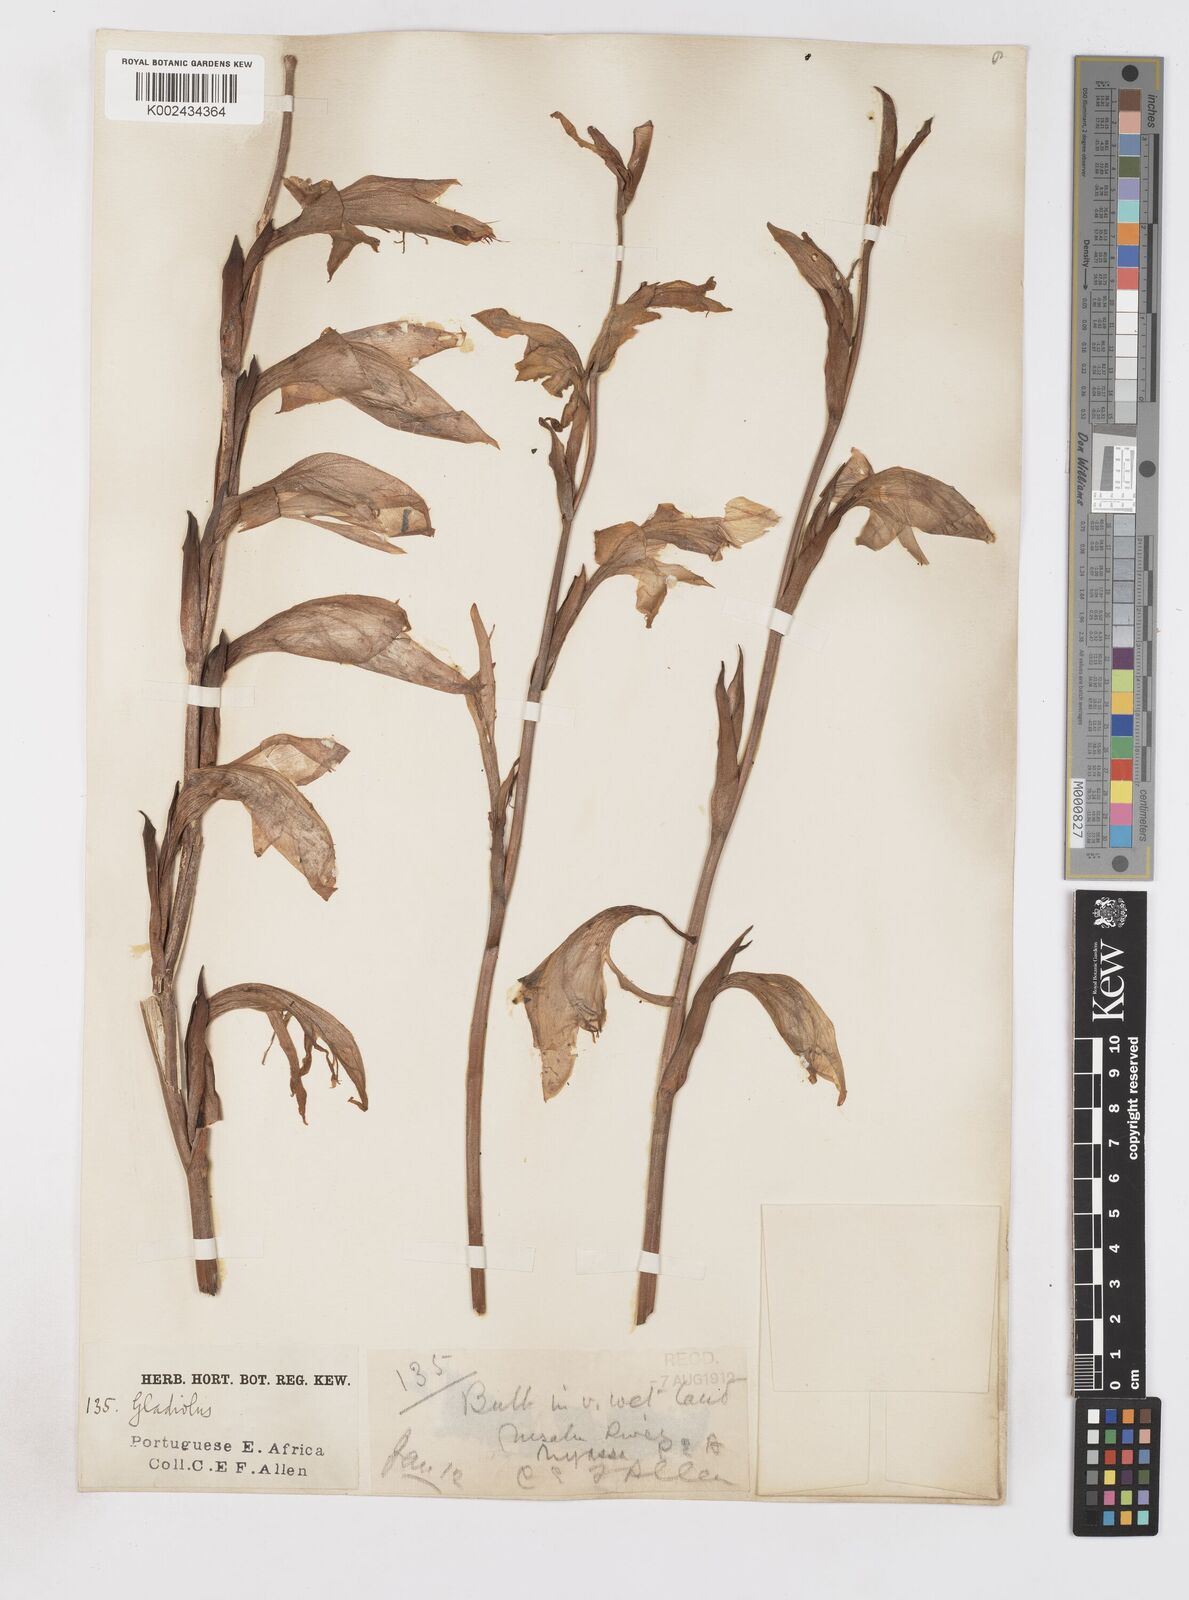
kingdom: Plantae
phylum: Tracheophyta
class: Liliopsida
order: Asparagales
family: Iridaceae
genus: Gladiolus
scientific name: Gladiolus dalenii
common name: Cornflag
